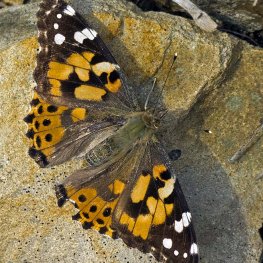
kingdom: Animalia
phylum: Arthropoda
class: Insecta
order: Lepidoptera
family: Nymphalidae
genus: Vanessa
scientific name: Vanessa cardui
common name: Painted Lady
